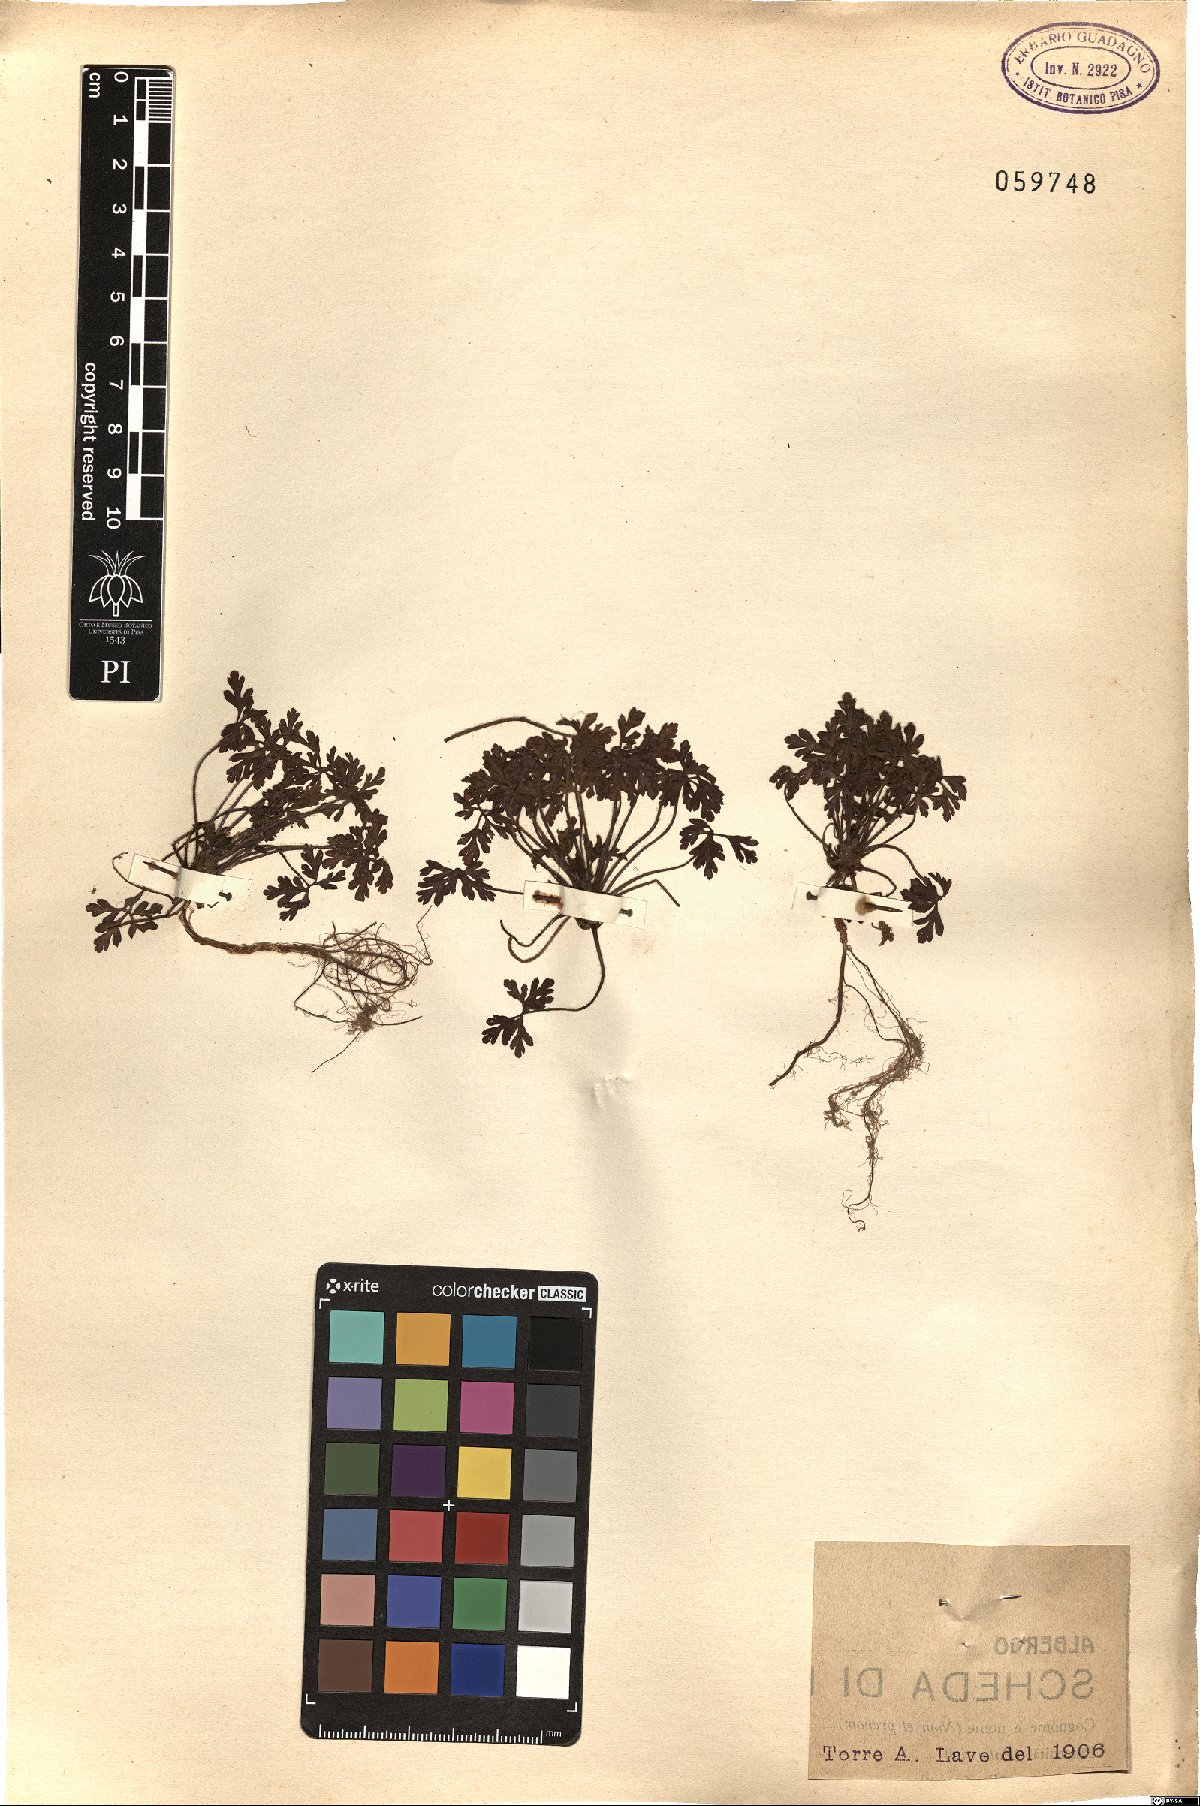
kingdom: Plantae
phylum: Tracheophyta
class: Magnoliopsida
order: Geraniales
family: Geraniaceae
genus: Geranium
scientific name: Geranium purpureum
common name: Little-robin
